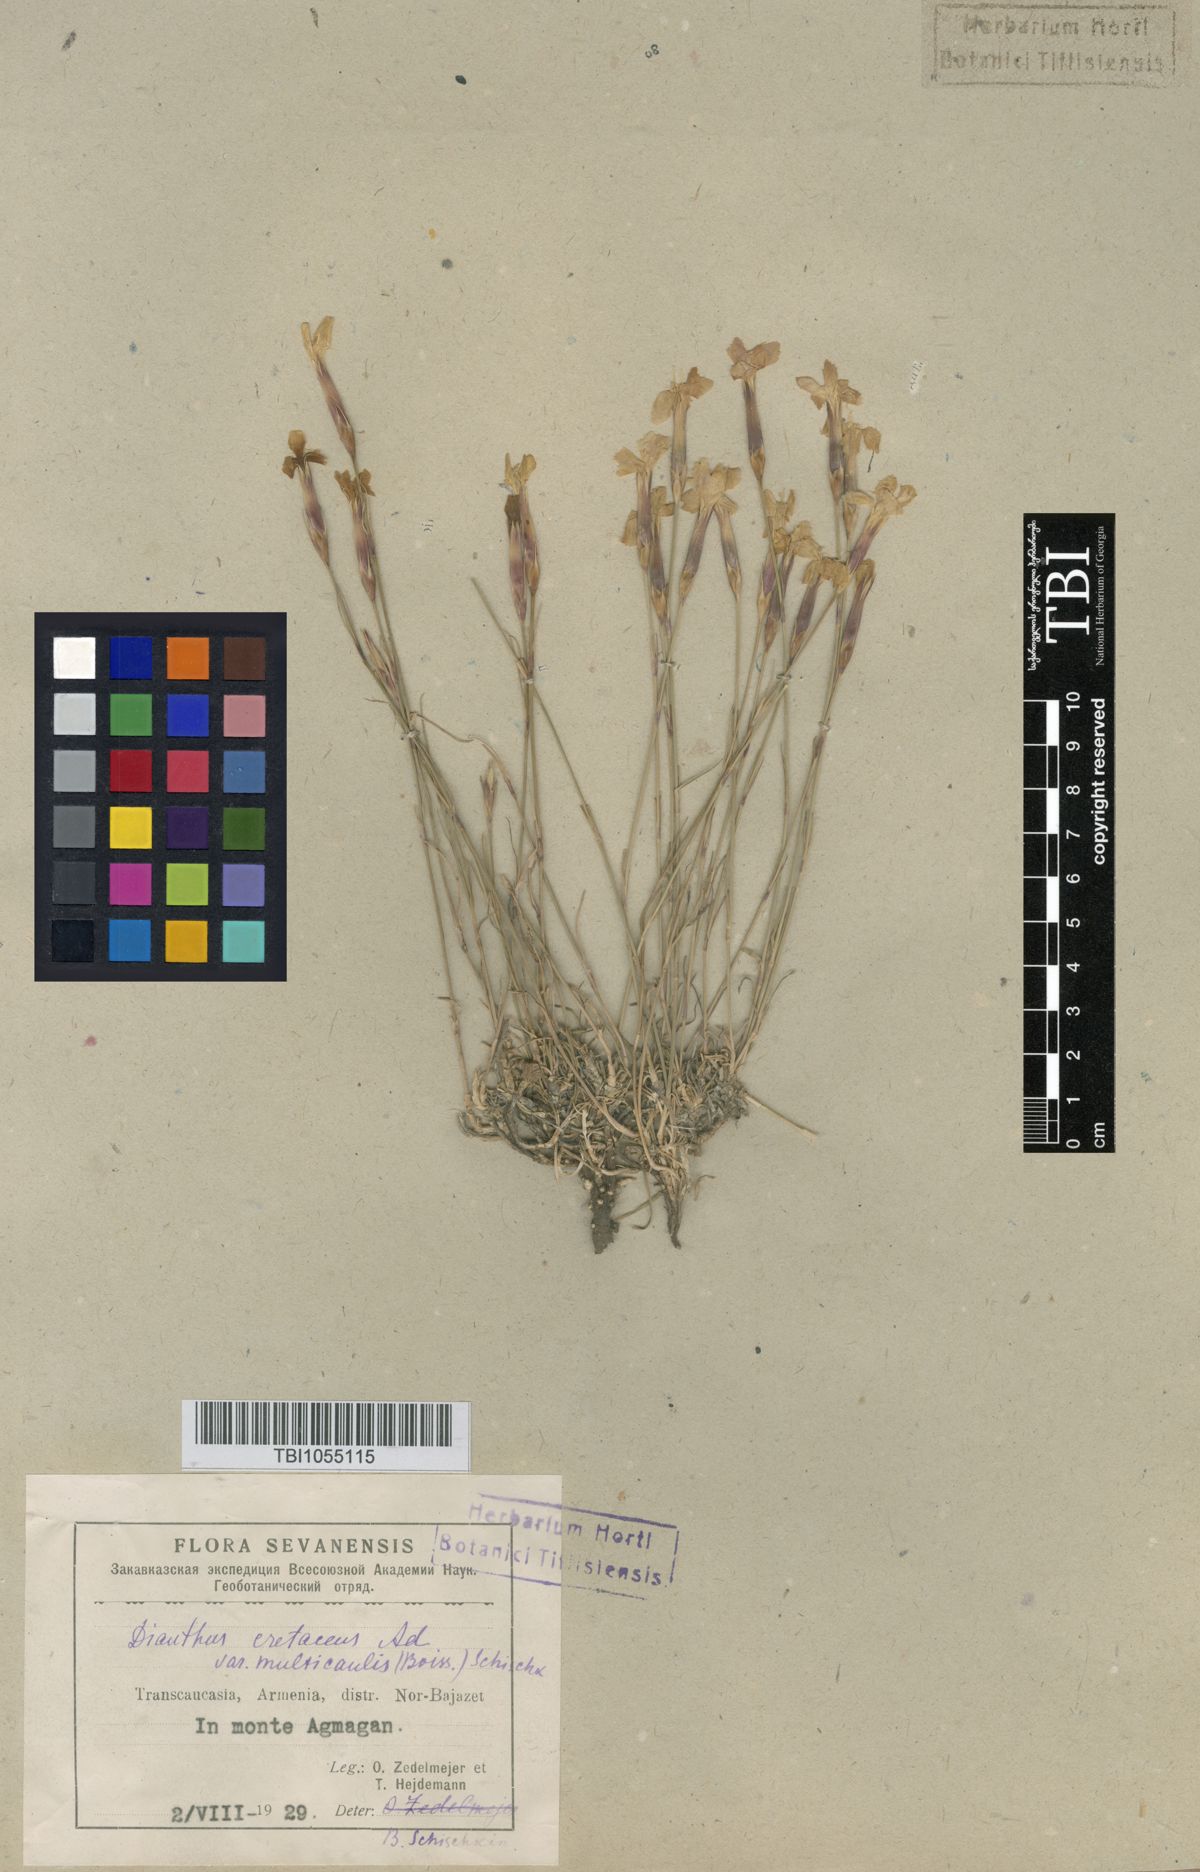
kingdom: Plantae
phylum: Tracheophyta
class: Magnoliopsida
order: Caryophyllales
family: Caryophyllaceae
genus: Dianthus
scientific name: Dianthus cretaceus
